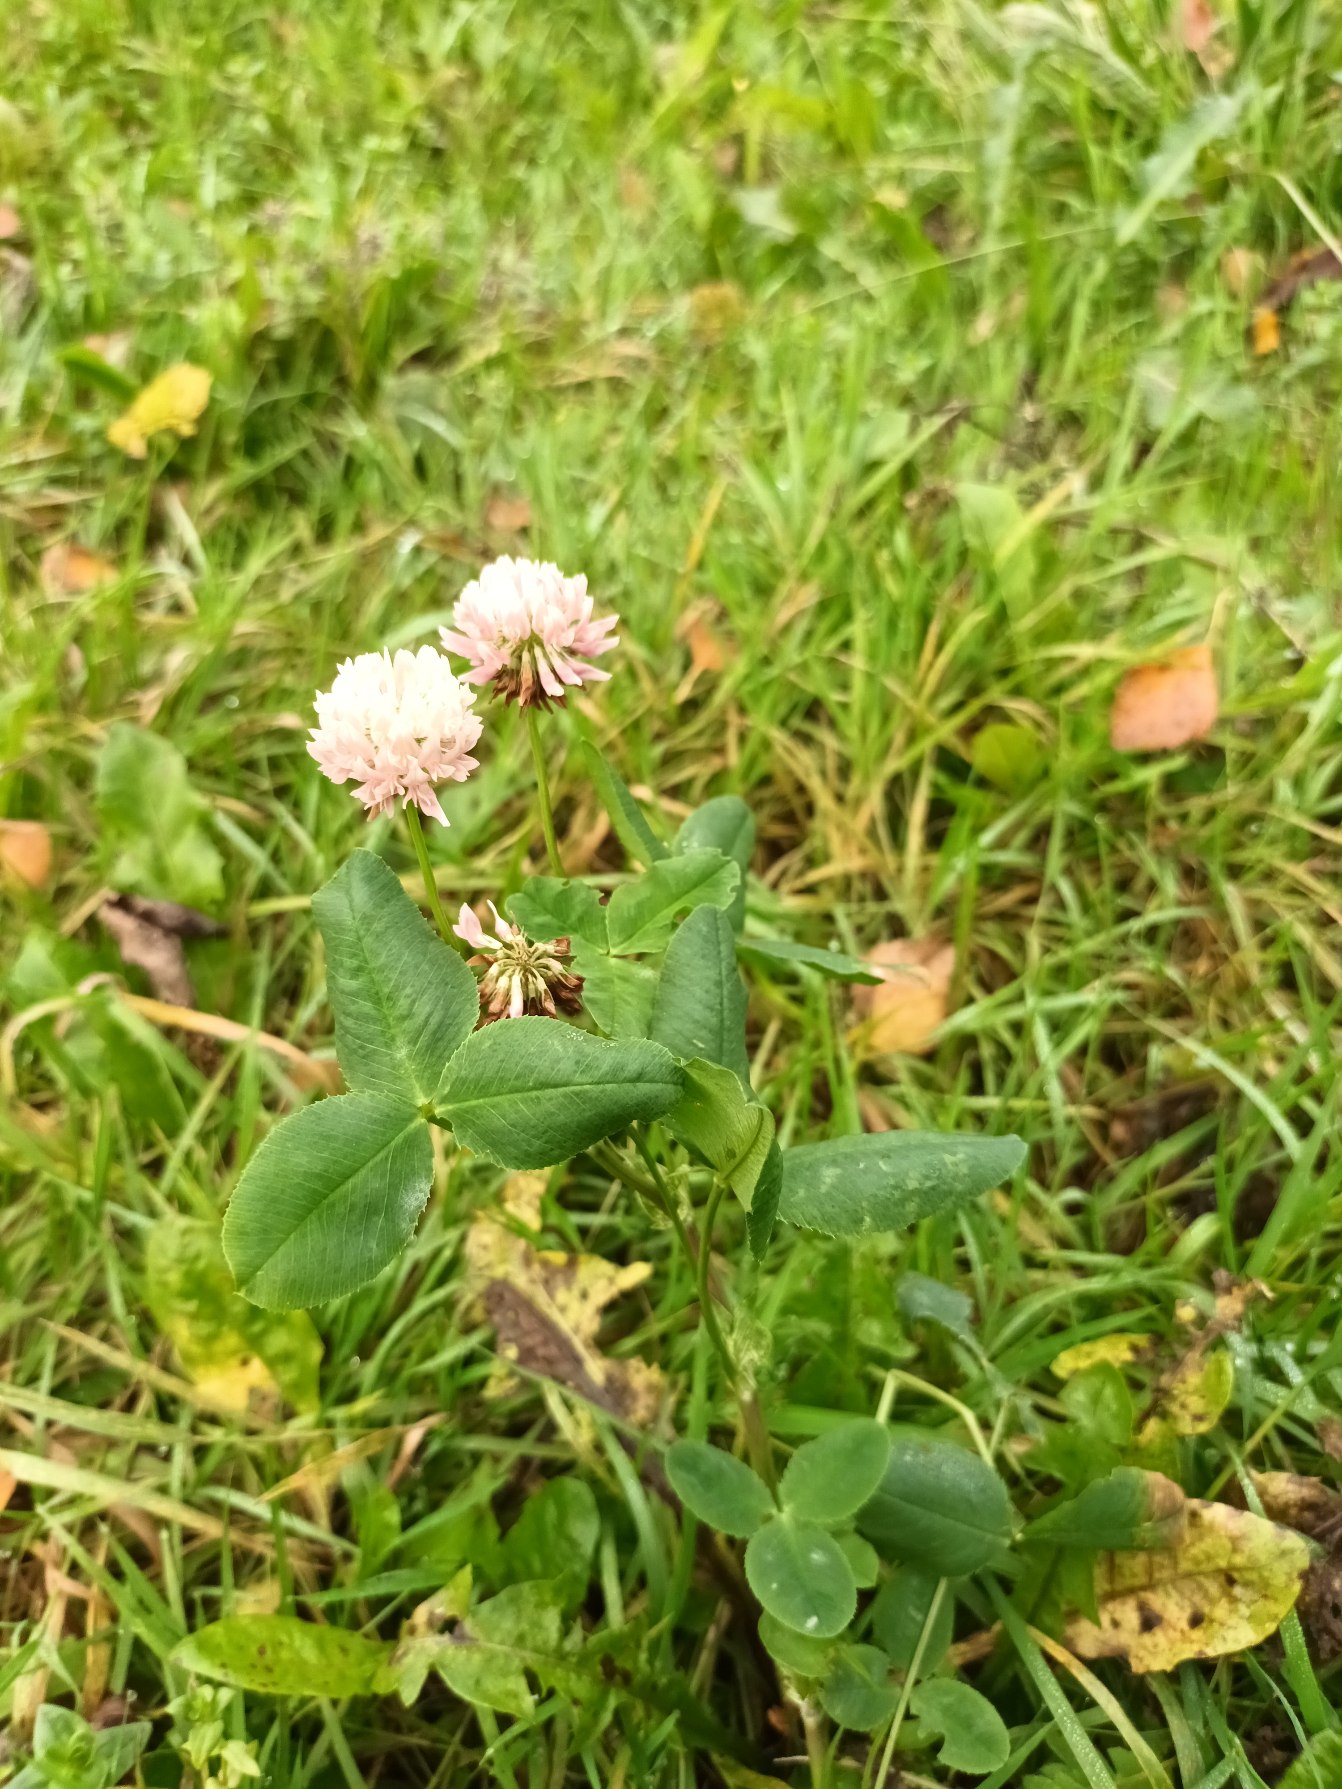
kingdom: Plantae
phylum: Tracheophyta
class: Magnoliopsida
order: Fabales
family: Fabaceae
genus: Trifolium
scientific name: Trifolium hybridum
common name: Alsike-kløver
